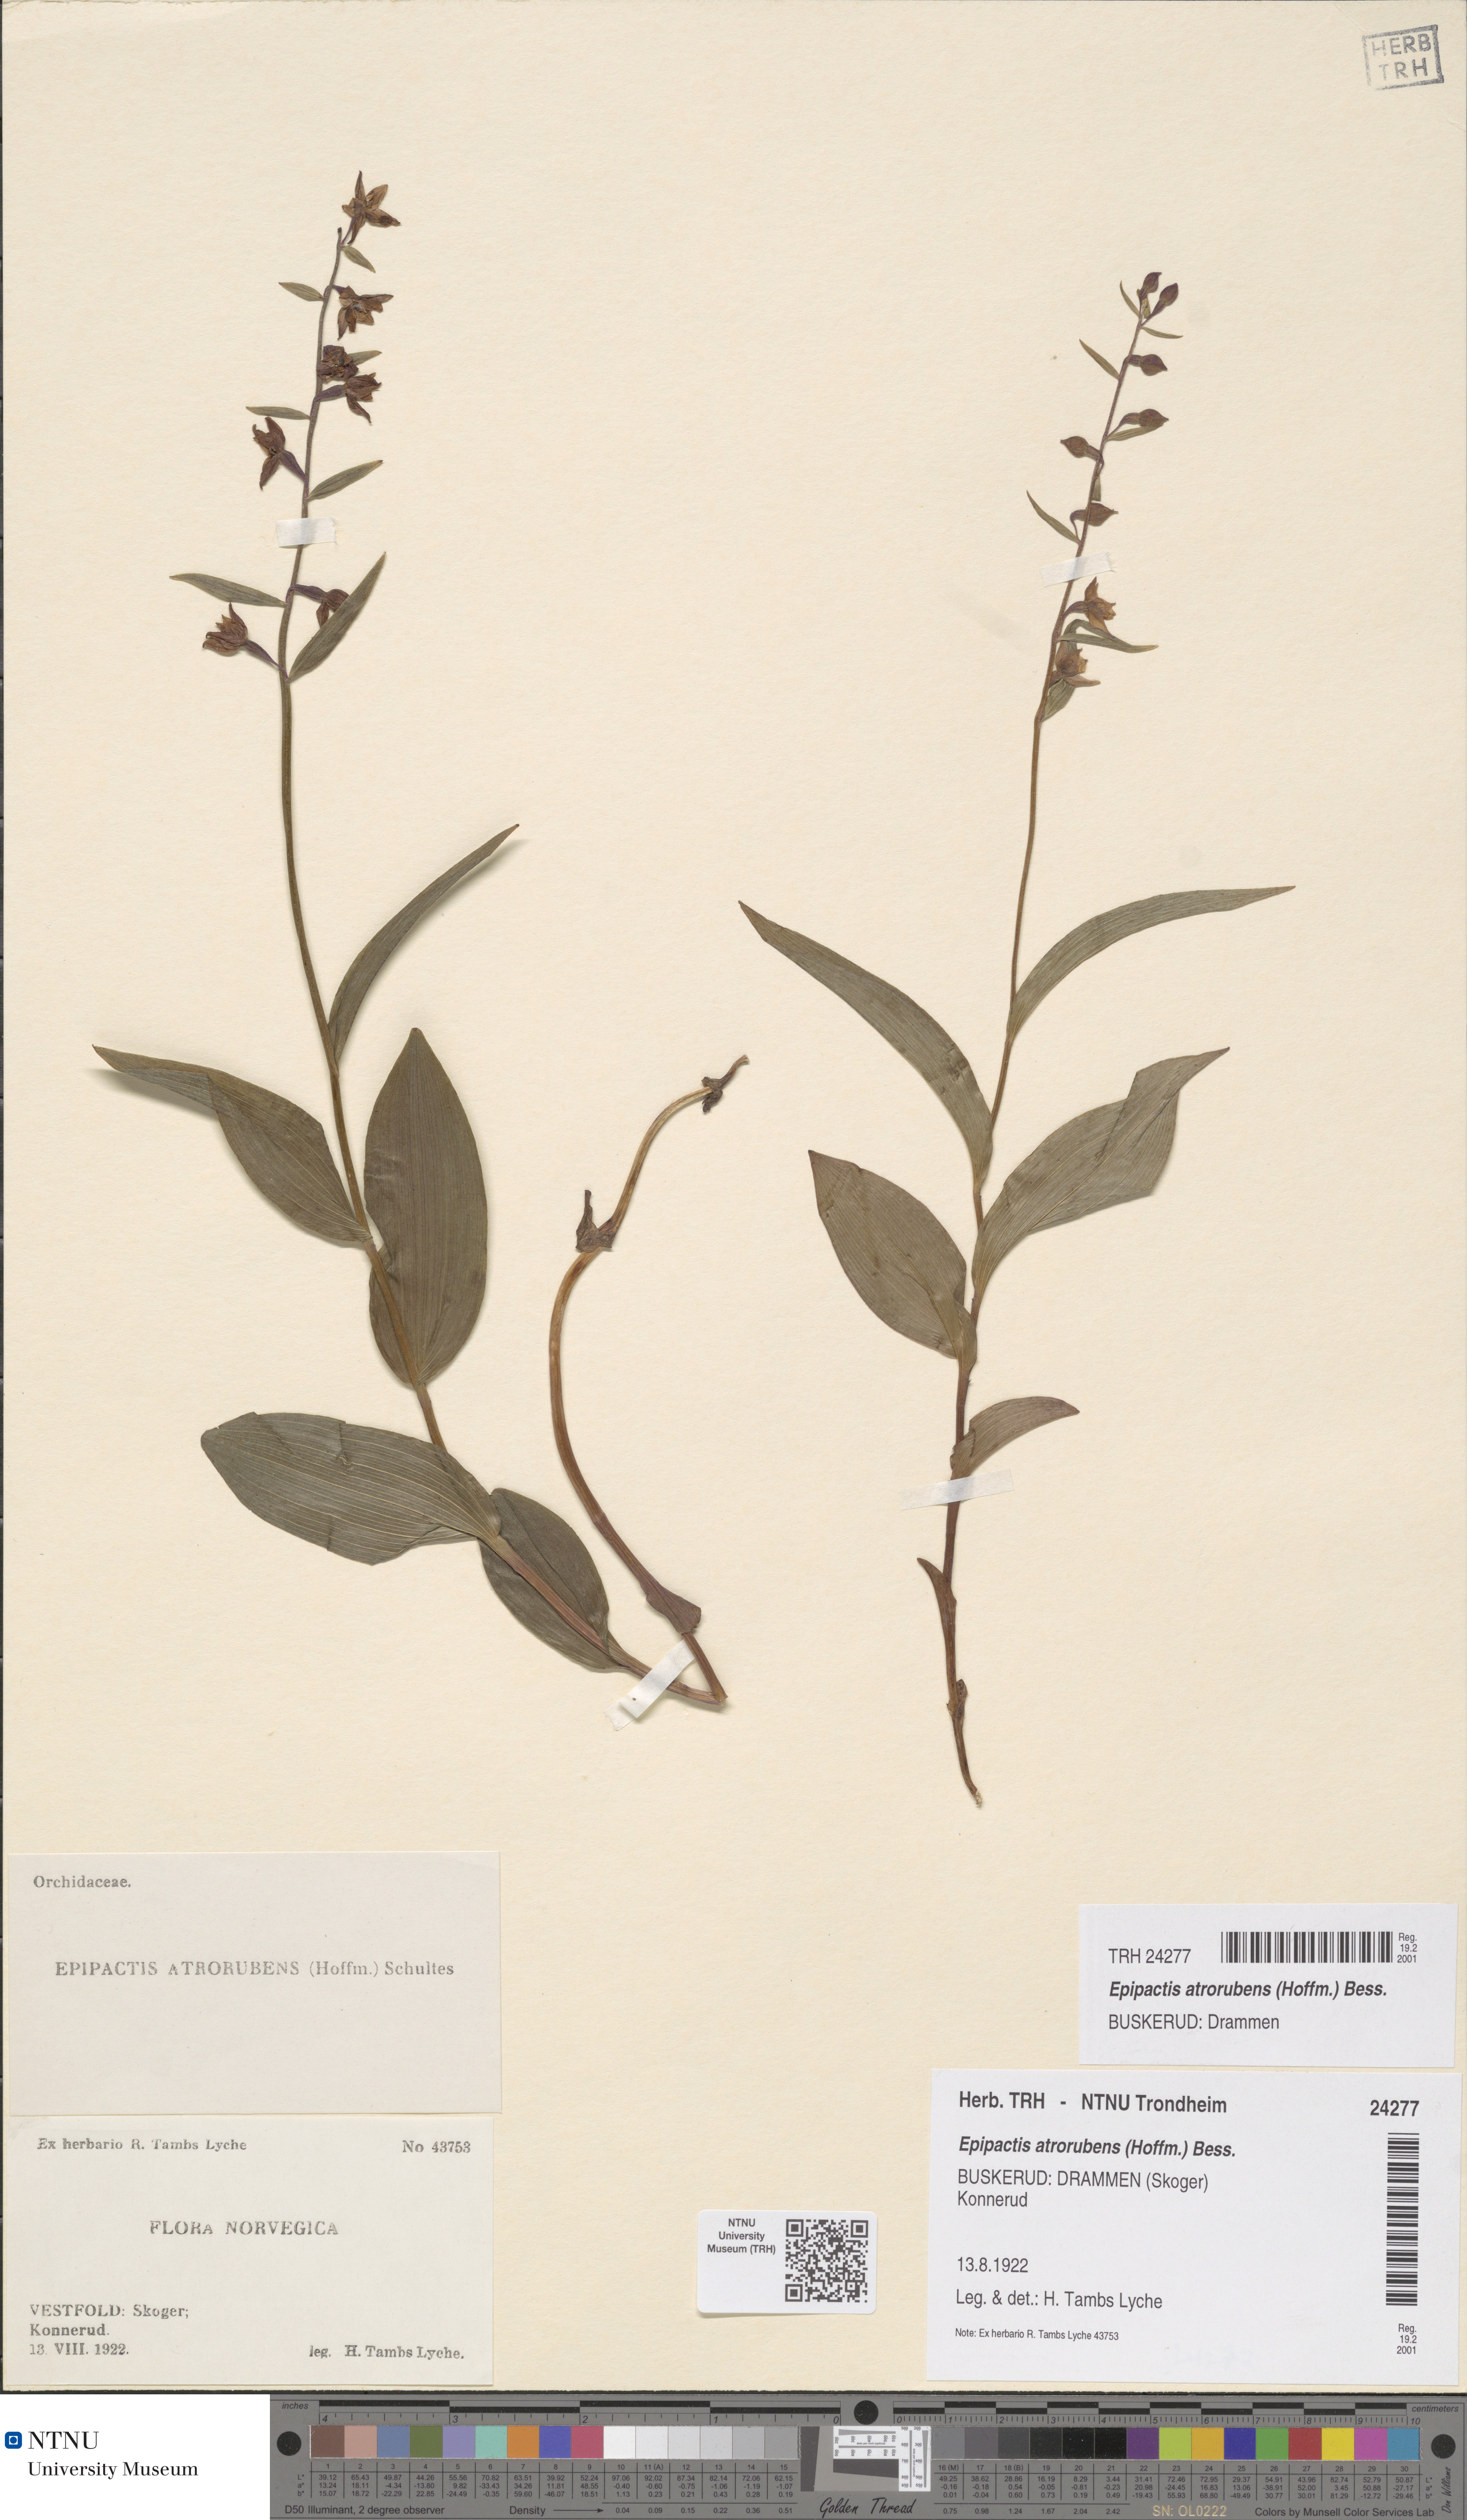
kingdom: Plantae
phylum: Tracheophyta
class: Liliopsida
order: Asparagales
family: Orchidaceae
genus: Epipactis
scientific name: Epipactis atrorubens
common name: Dark-red helleborine
